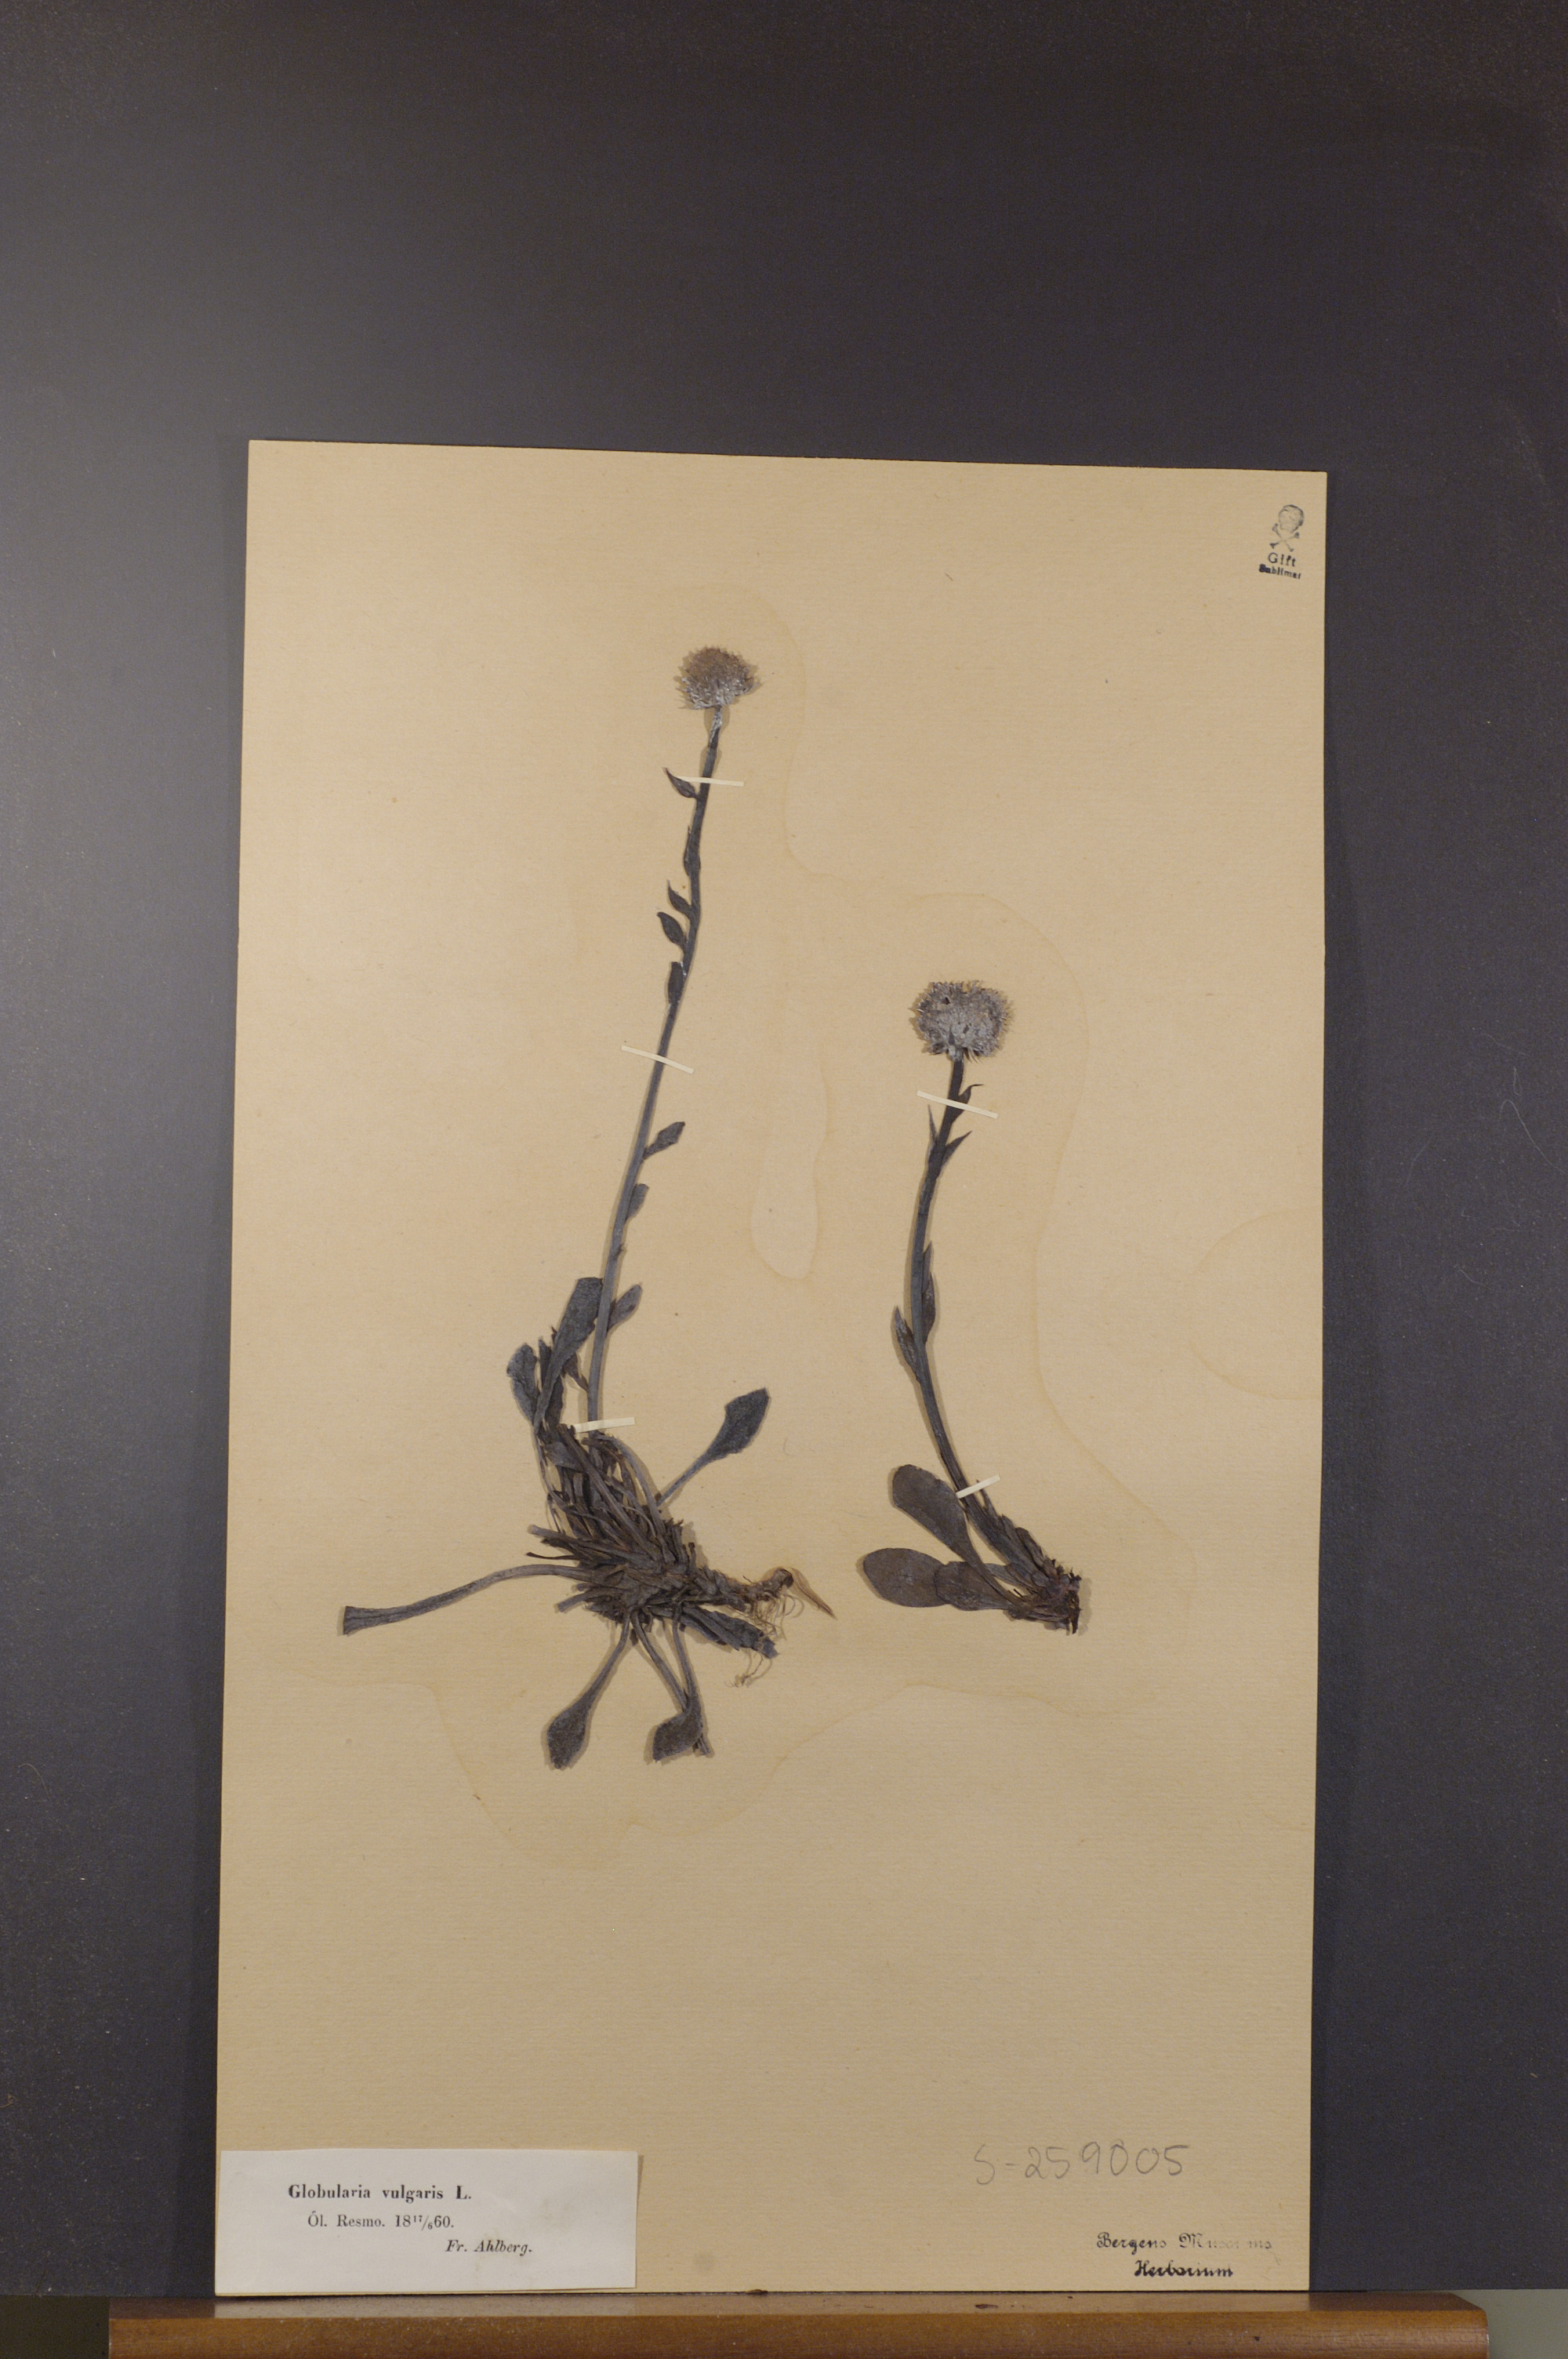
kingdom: Plantae
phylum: Tracheophyta
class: Magnoliopsida
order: Lamiales
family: Plantaginaceae
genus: Globularia
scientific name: Globularia vulgaris
